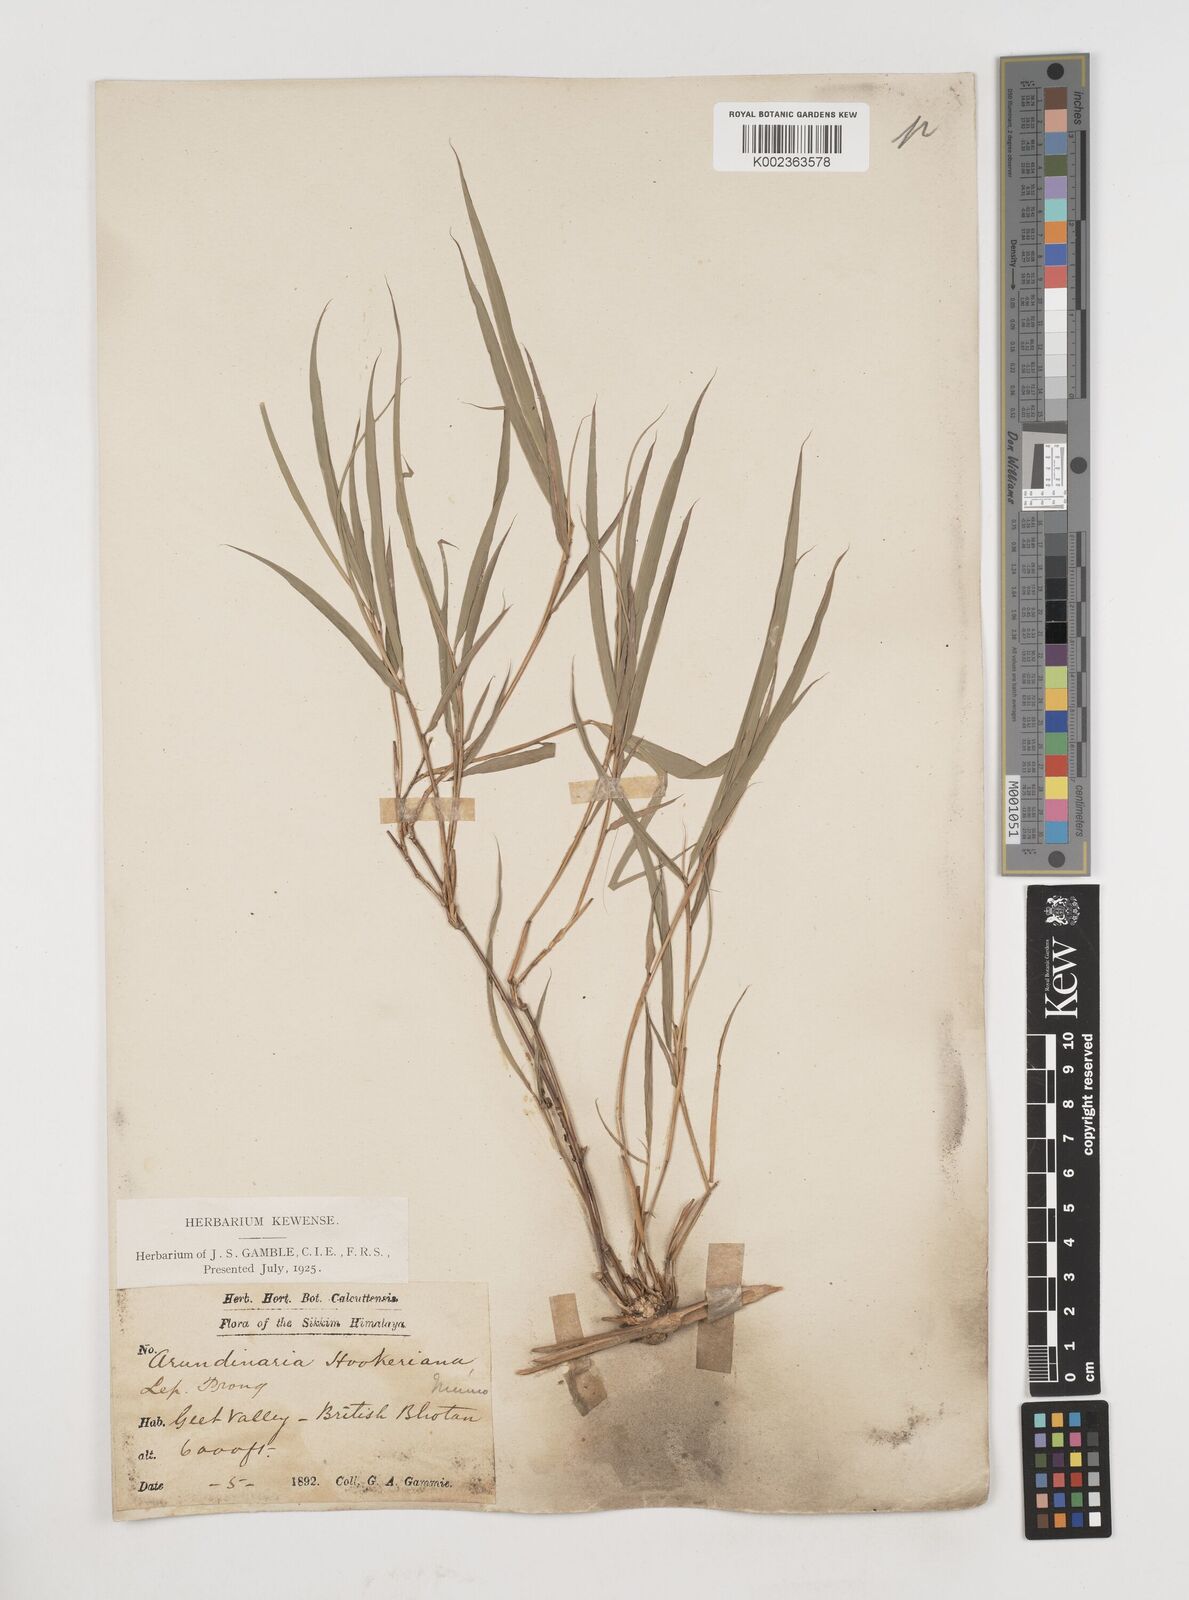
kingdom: Plantae
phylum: Tracheophyta
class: Liliopsida
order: Poales
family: Poaceae
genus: Himalayacalamus
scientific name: Himalayacalamus hookerianus
